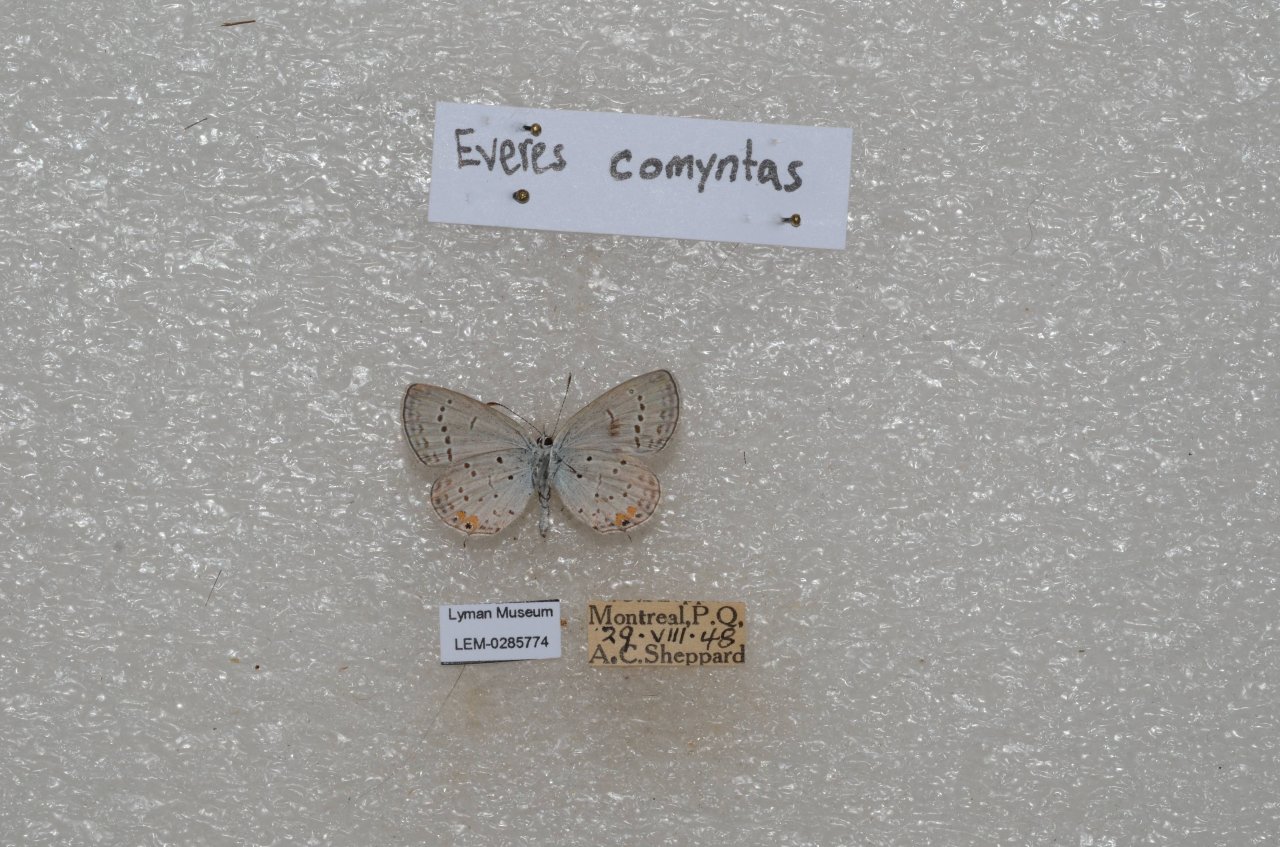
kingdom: Animalia
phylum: Arthropoda
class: Insecta
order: Lepidoptera
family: Lycaenidae
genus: Elkalyce
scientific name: Elkalyce comyntas
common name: Eastern Tailed-Blue
